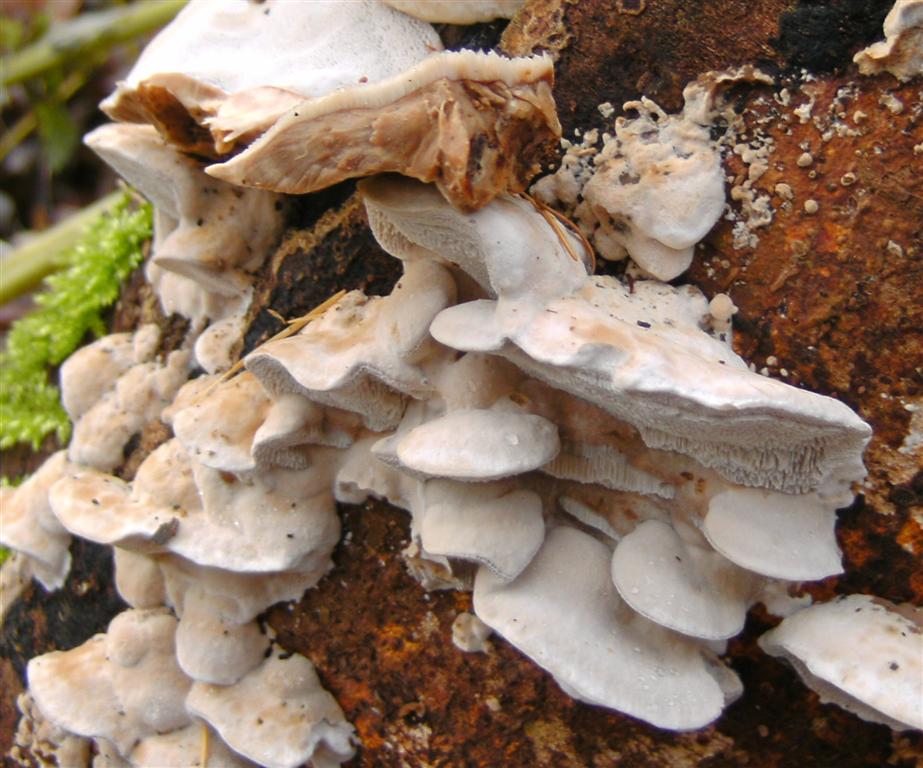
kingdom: Fungi
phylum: Basidiomycota
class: Agaricomycetes
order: Polyporales
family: Phanerochaetaceae
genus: Bjerkandera
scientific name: Bjerkandera fumosa
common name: grågul sodporesvamp
